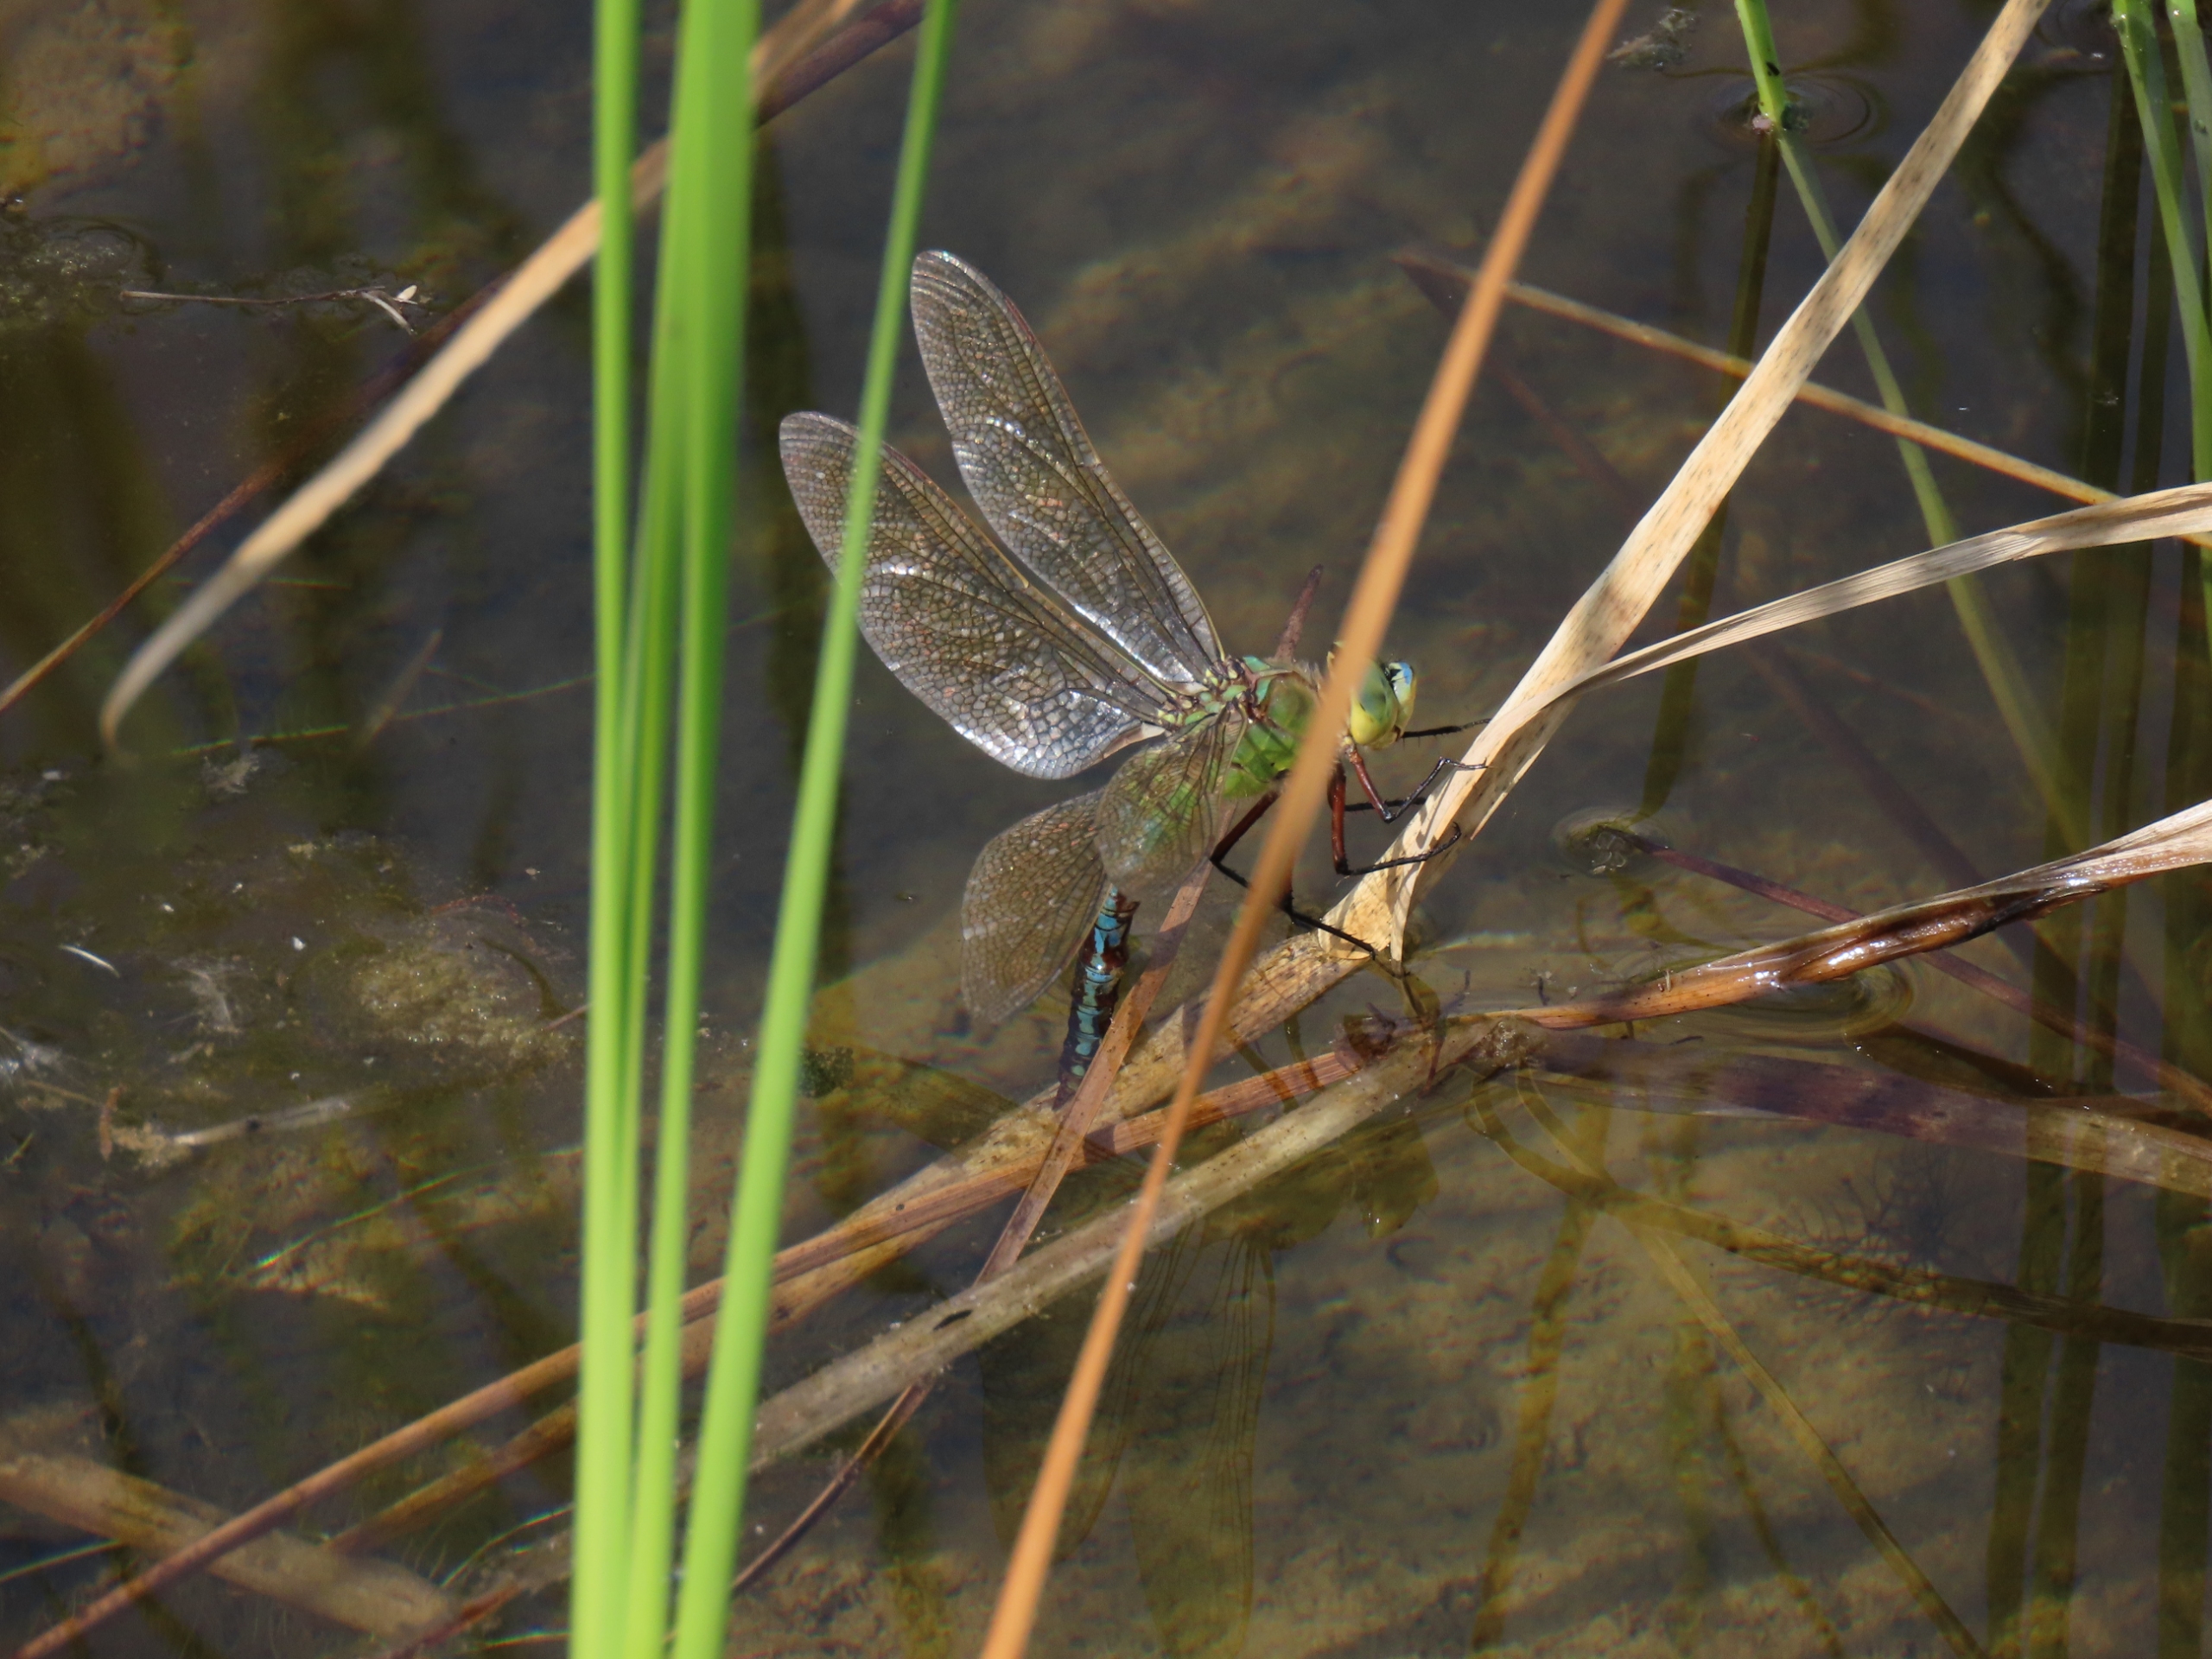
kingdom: Animalia
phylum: Arthropoda
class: Insecta
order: Odonata
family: Aeshnidae
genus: Anax
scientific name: Anax imperator
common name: Stor kejserguldsmed
